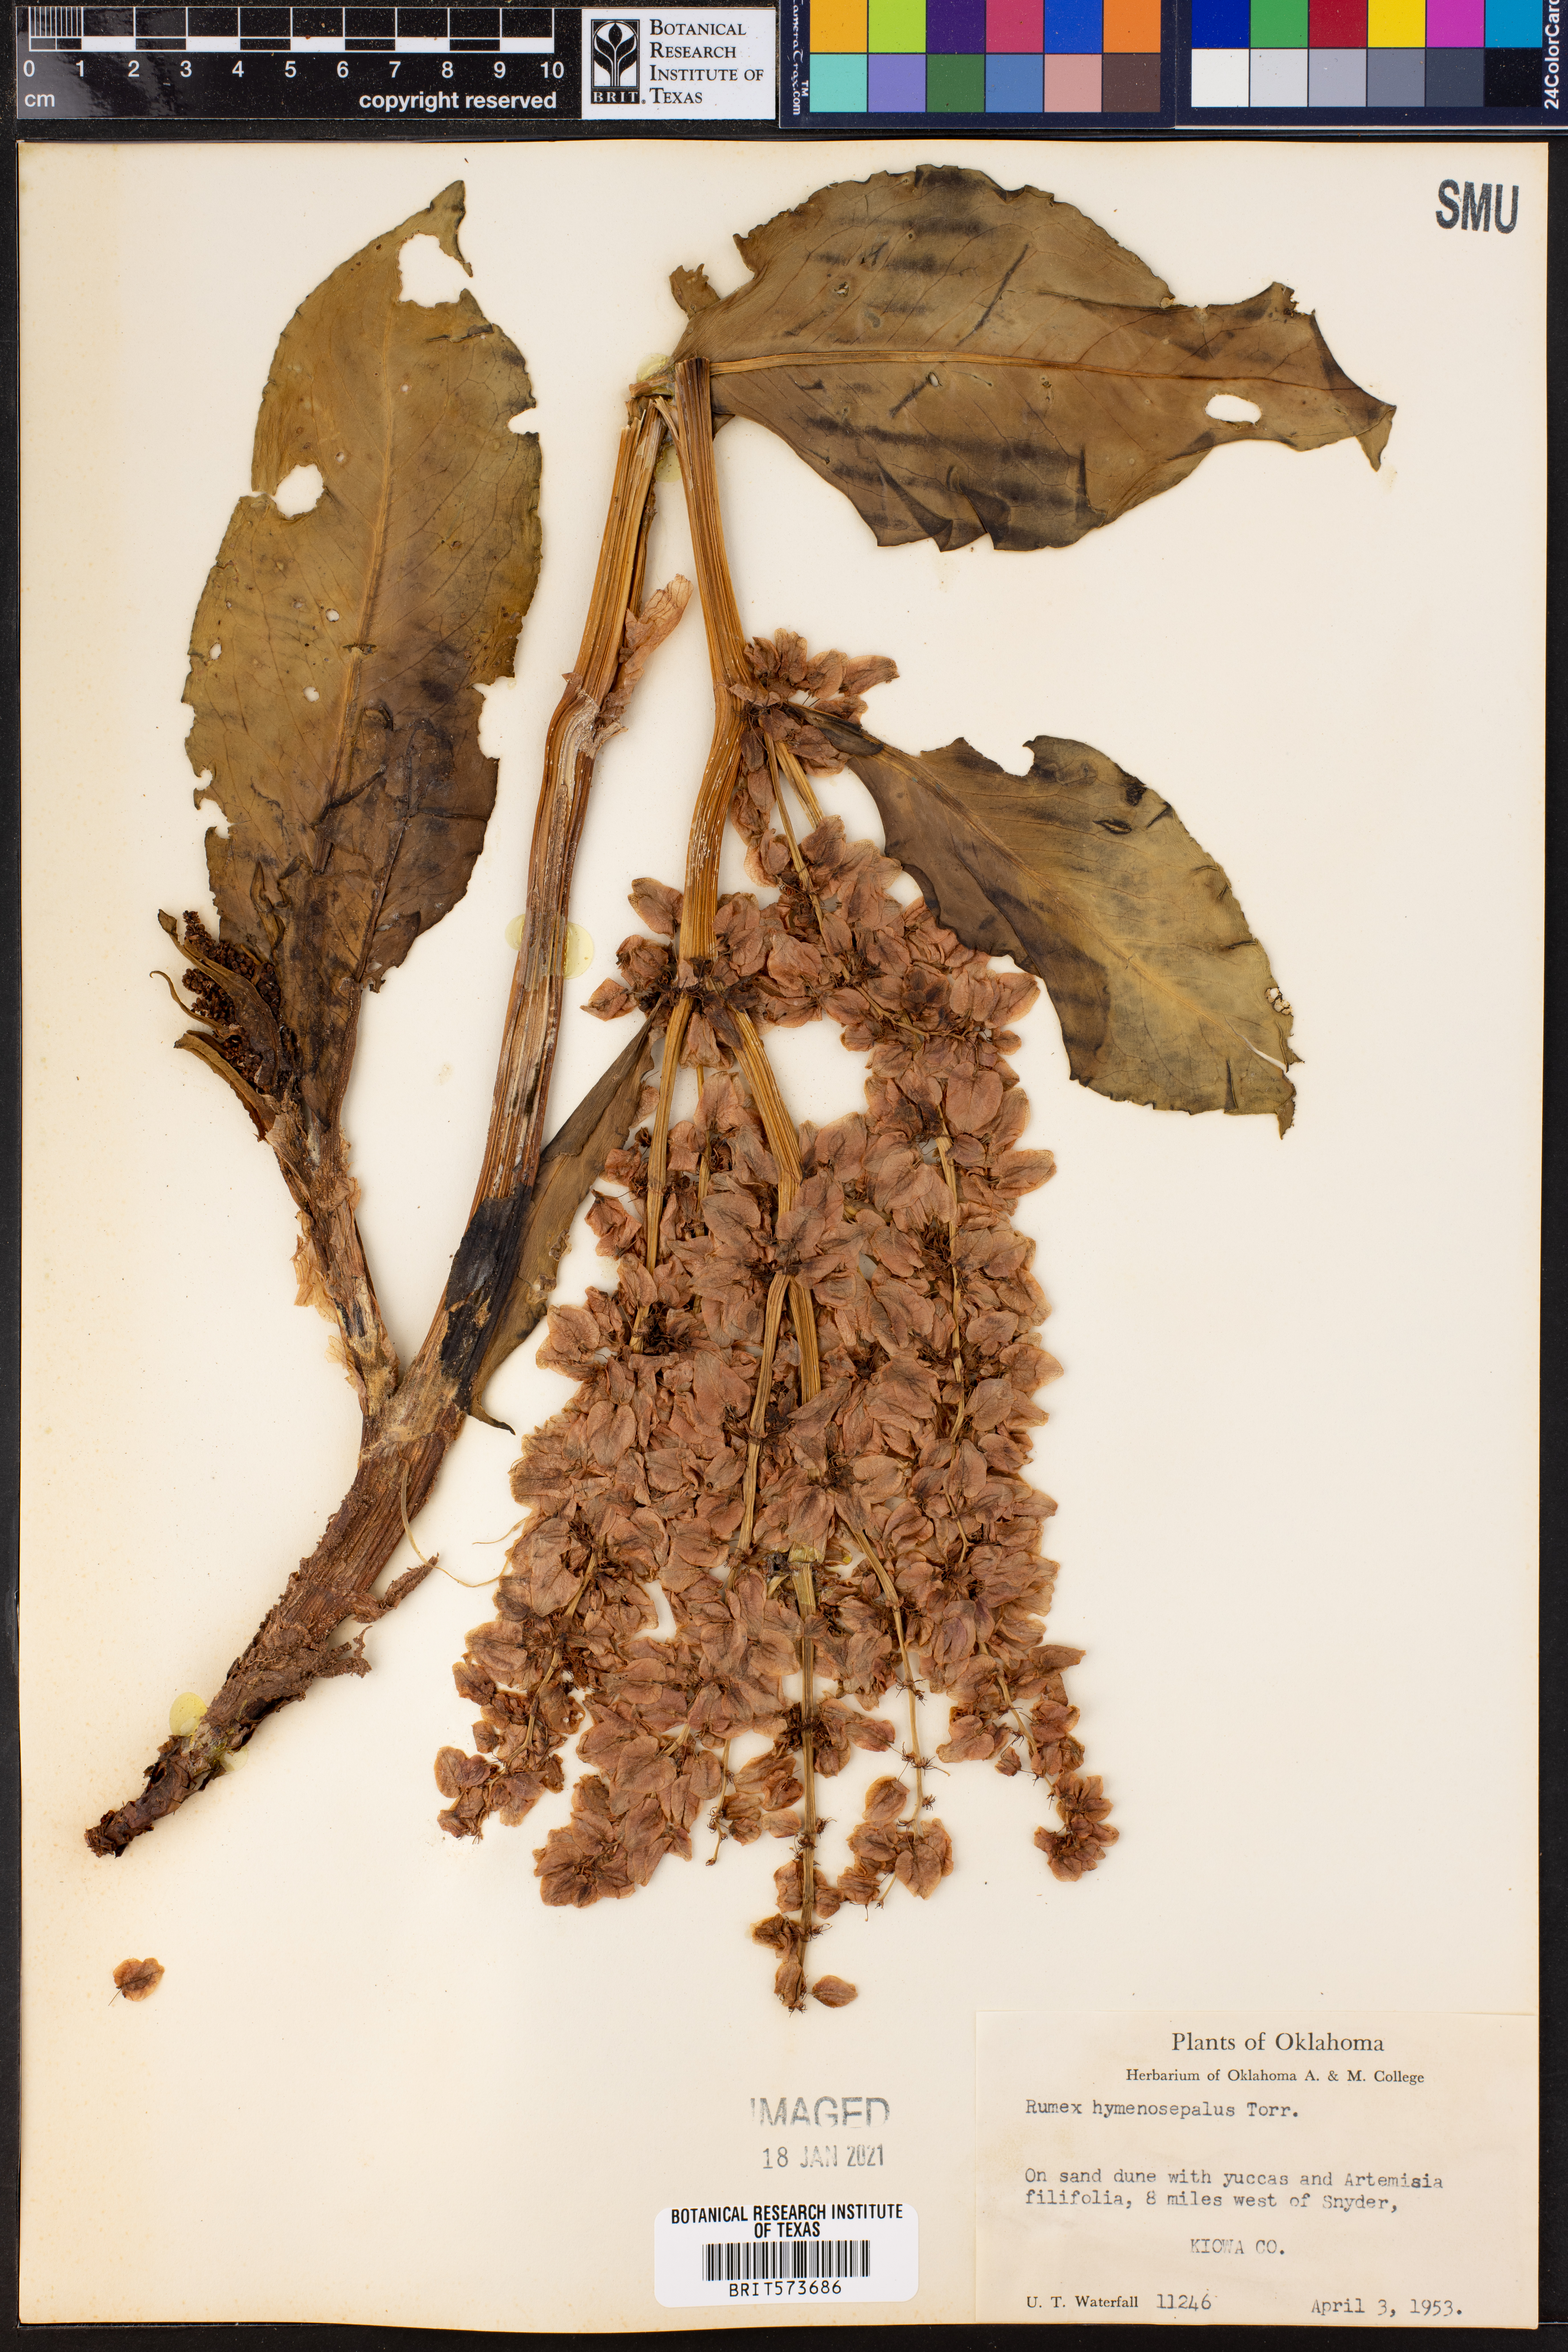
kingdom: Plantae
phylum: Tracheophyta
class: Magnoliopsida
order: Caryophyllales
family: Polygonaceae
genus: Rumex
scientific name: Rumex hymenosepalus
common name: Ganagra
